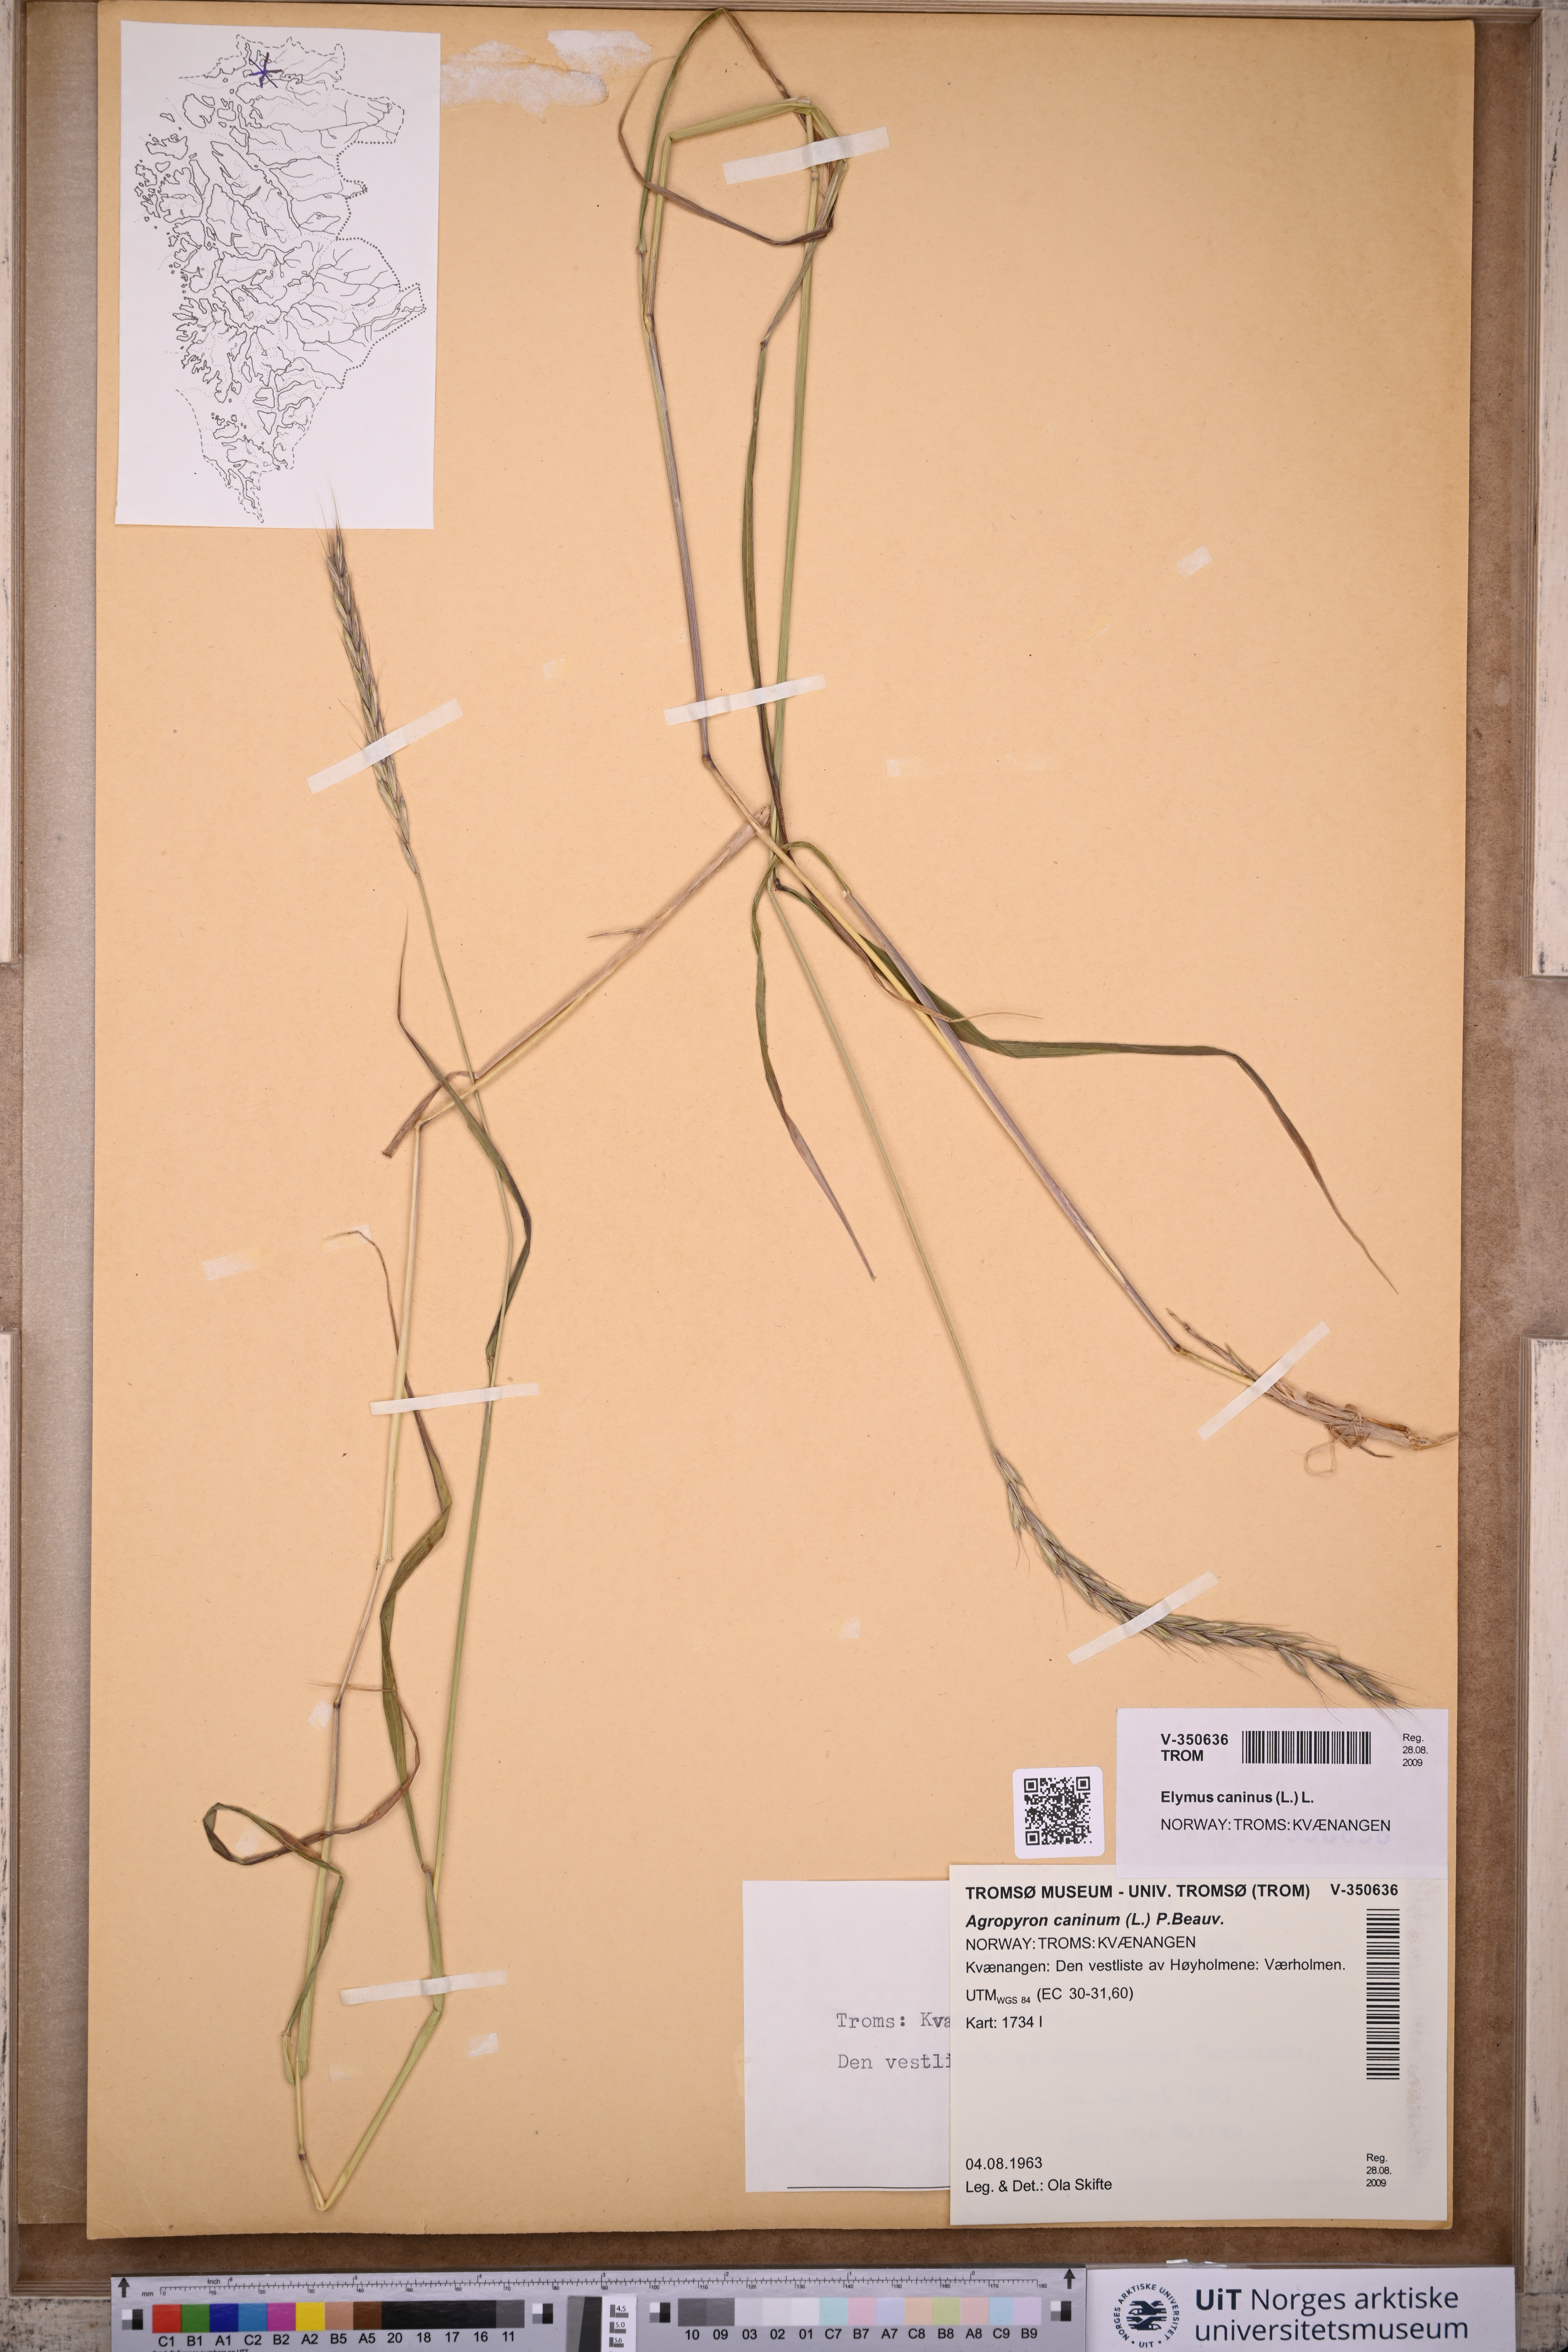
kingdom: Plantae
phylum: Tracheophyta
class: Liliopsida
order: Poales
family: Poaceae
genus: Elymus
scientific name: Elymus caninus
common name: Bearded couch
